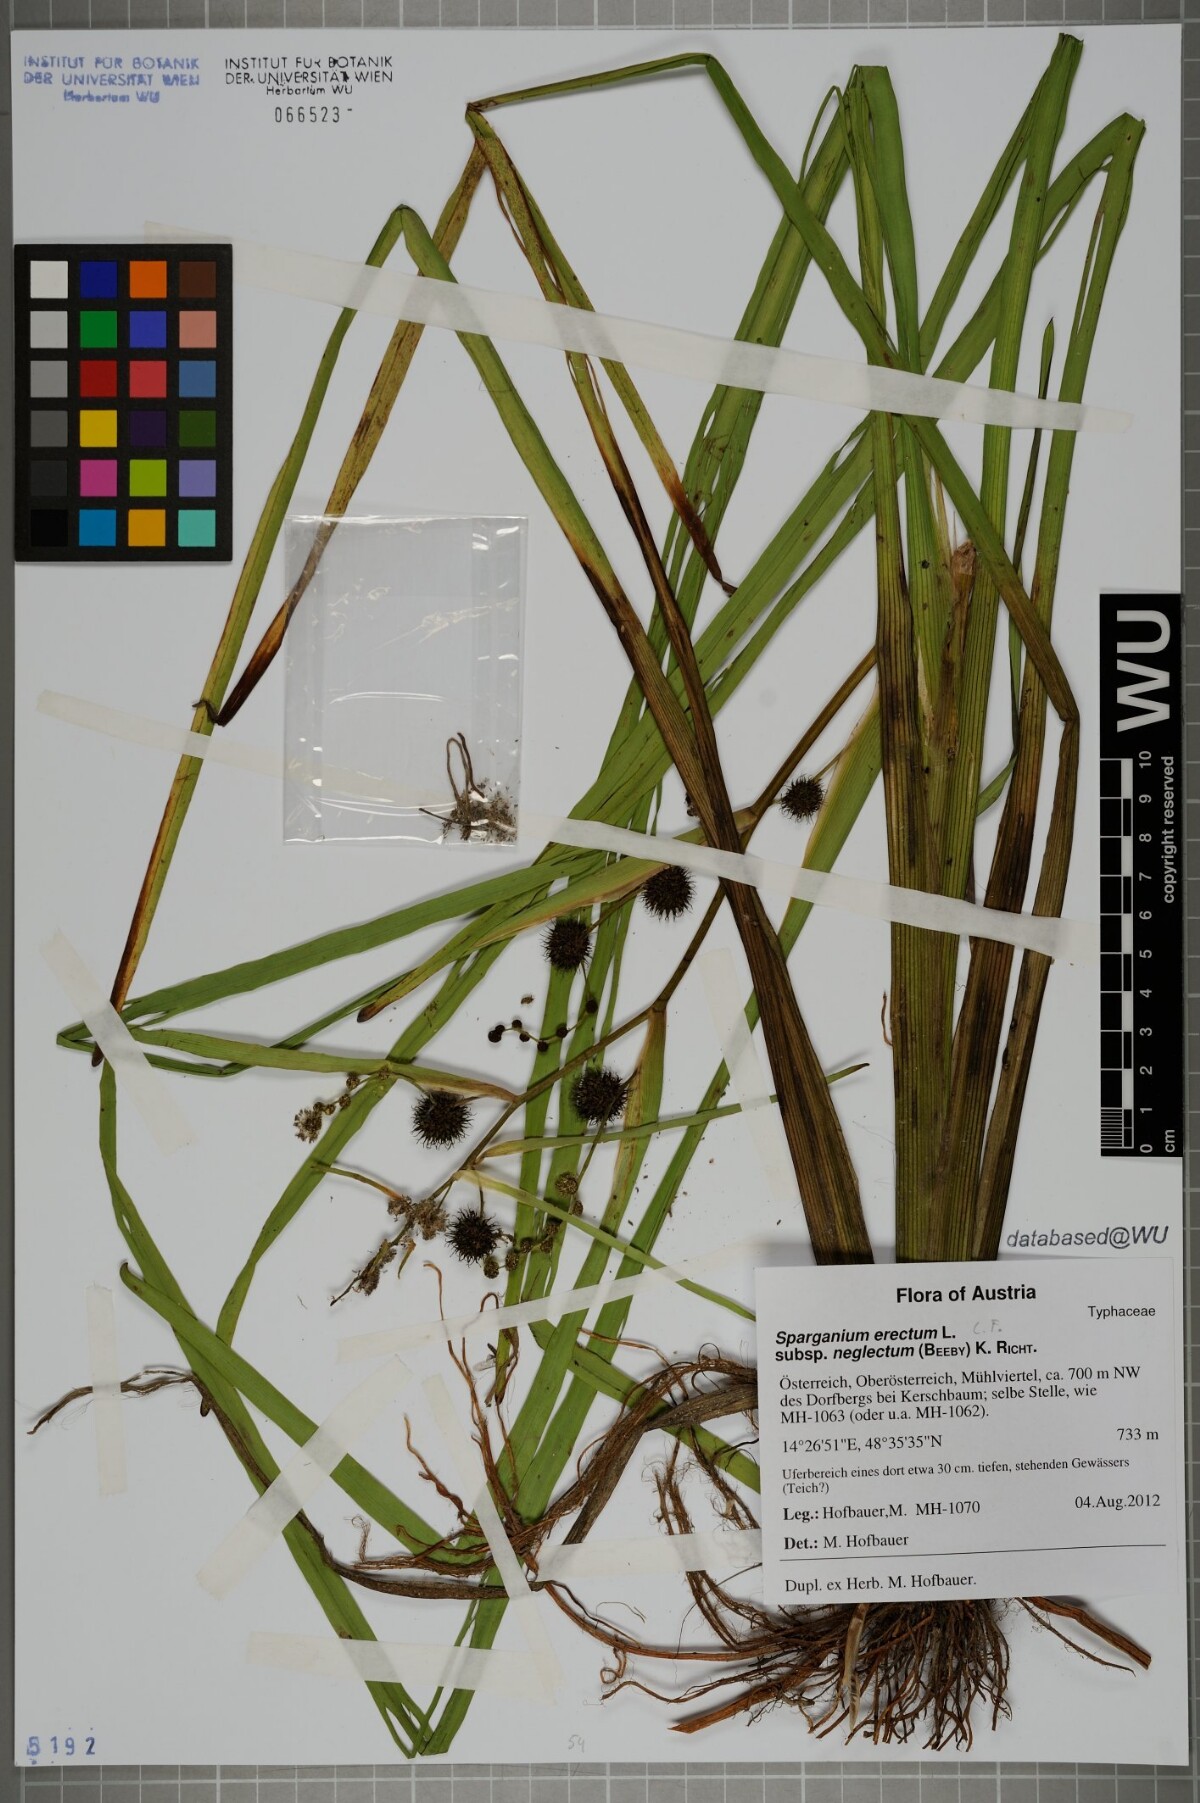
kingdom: Plantae
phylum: Tracheophyta
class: Liliopsida
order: Poales
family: Typhaceae
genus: Sparganium
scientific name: Sparganium erectum
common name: Branched bur-reed
